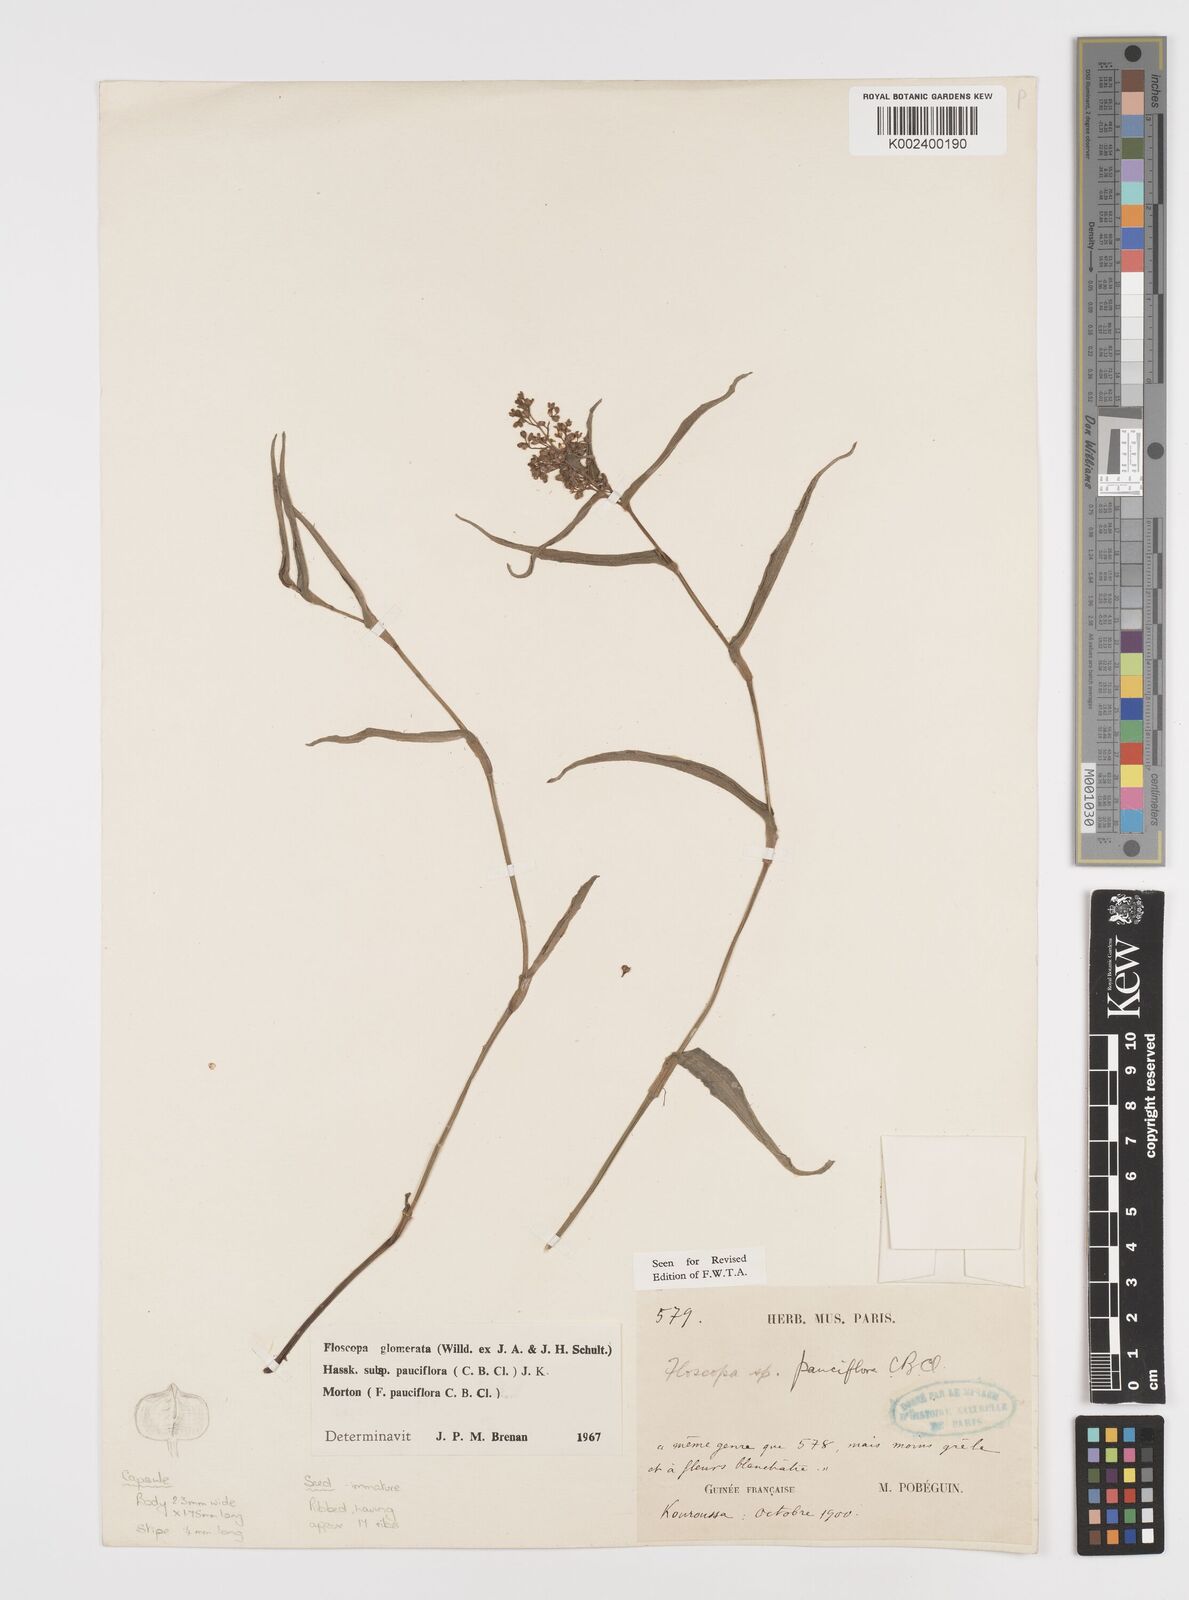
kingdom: Plantae
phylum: Tracheophyta
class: Liliopsida
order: Commelinales
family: Commelinaceae
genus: Floscopa
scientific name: Floscopa glomerata
